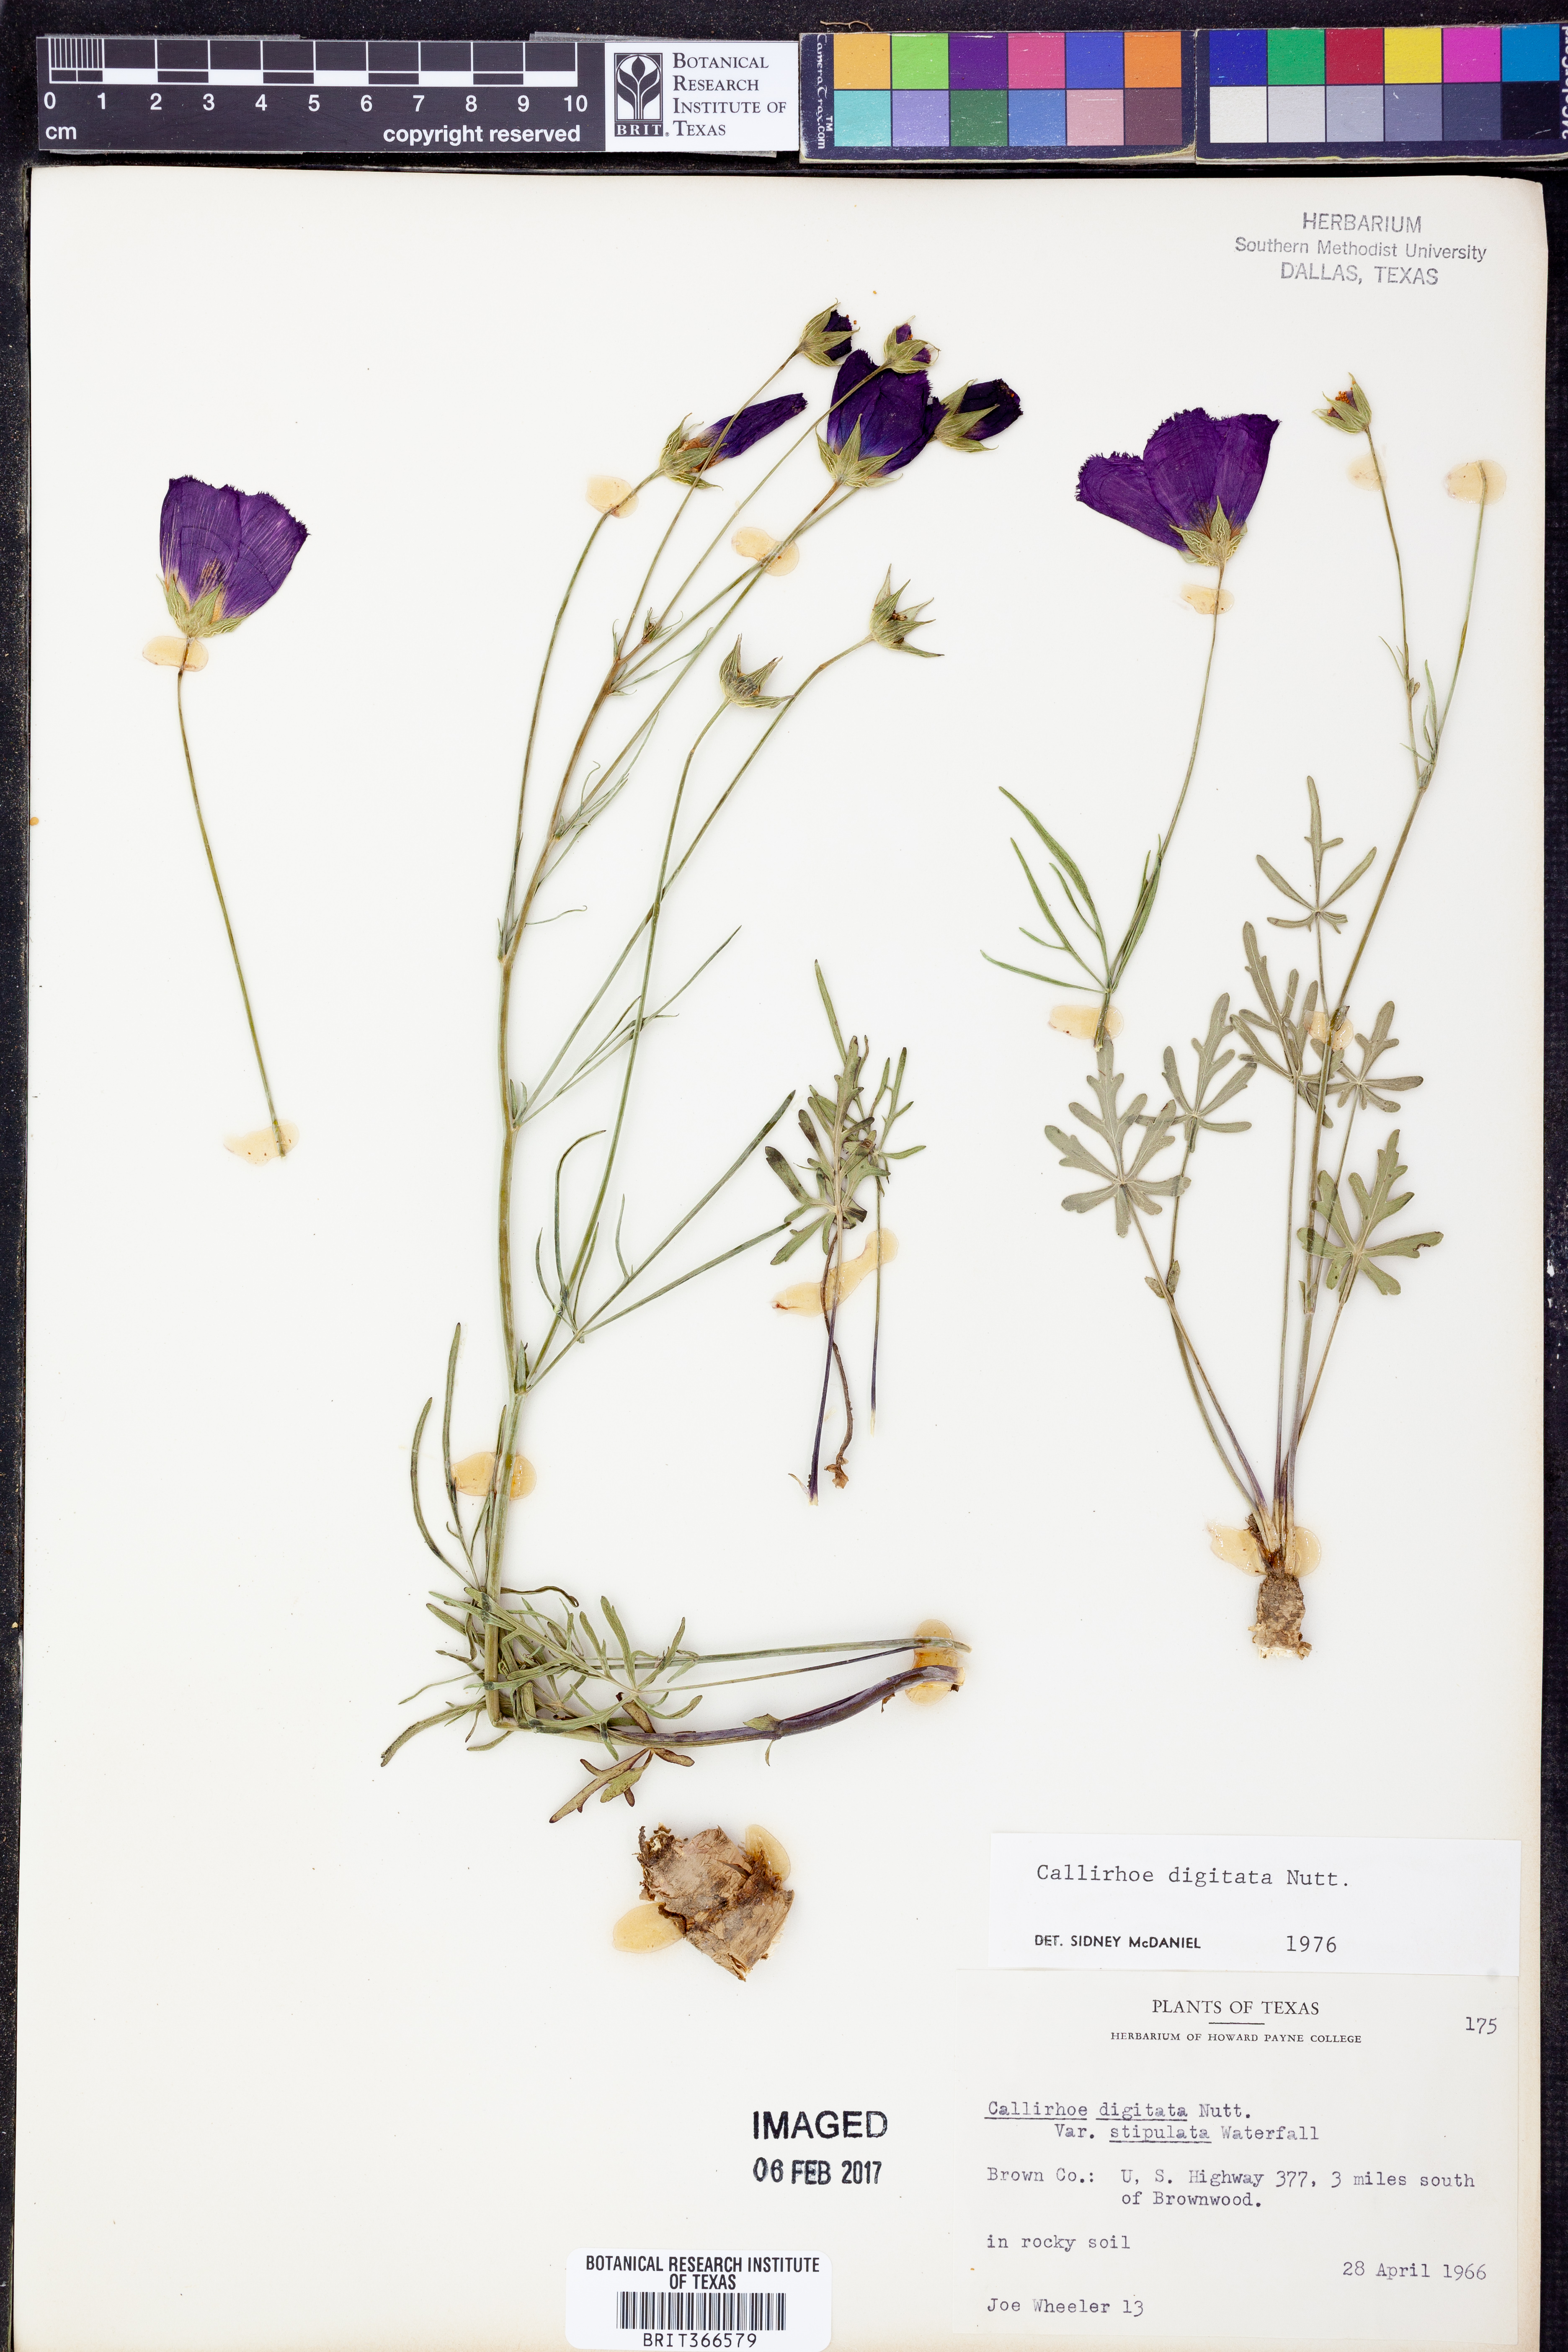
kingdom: Plantae
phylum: Tracheophyta
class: Magnoliopsida
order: Malvales
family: Malvaceae
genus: Callirhoe
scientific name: Callirhoe digitata
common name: Finger poppy-mallow
